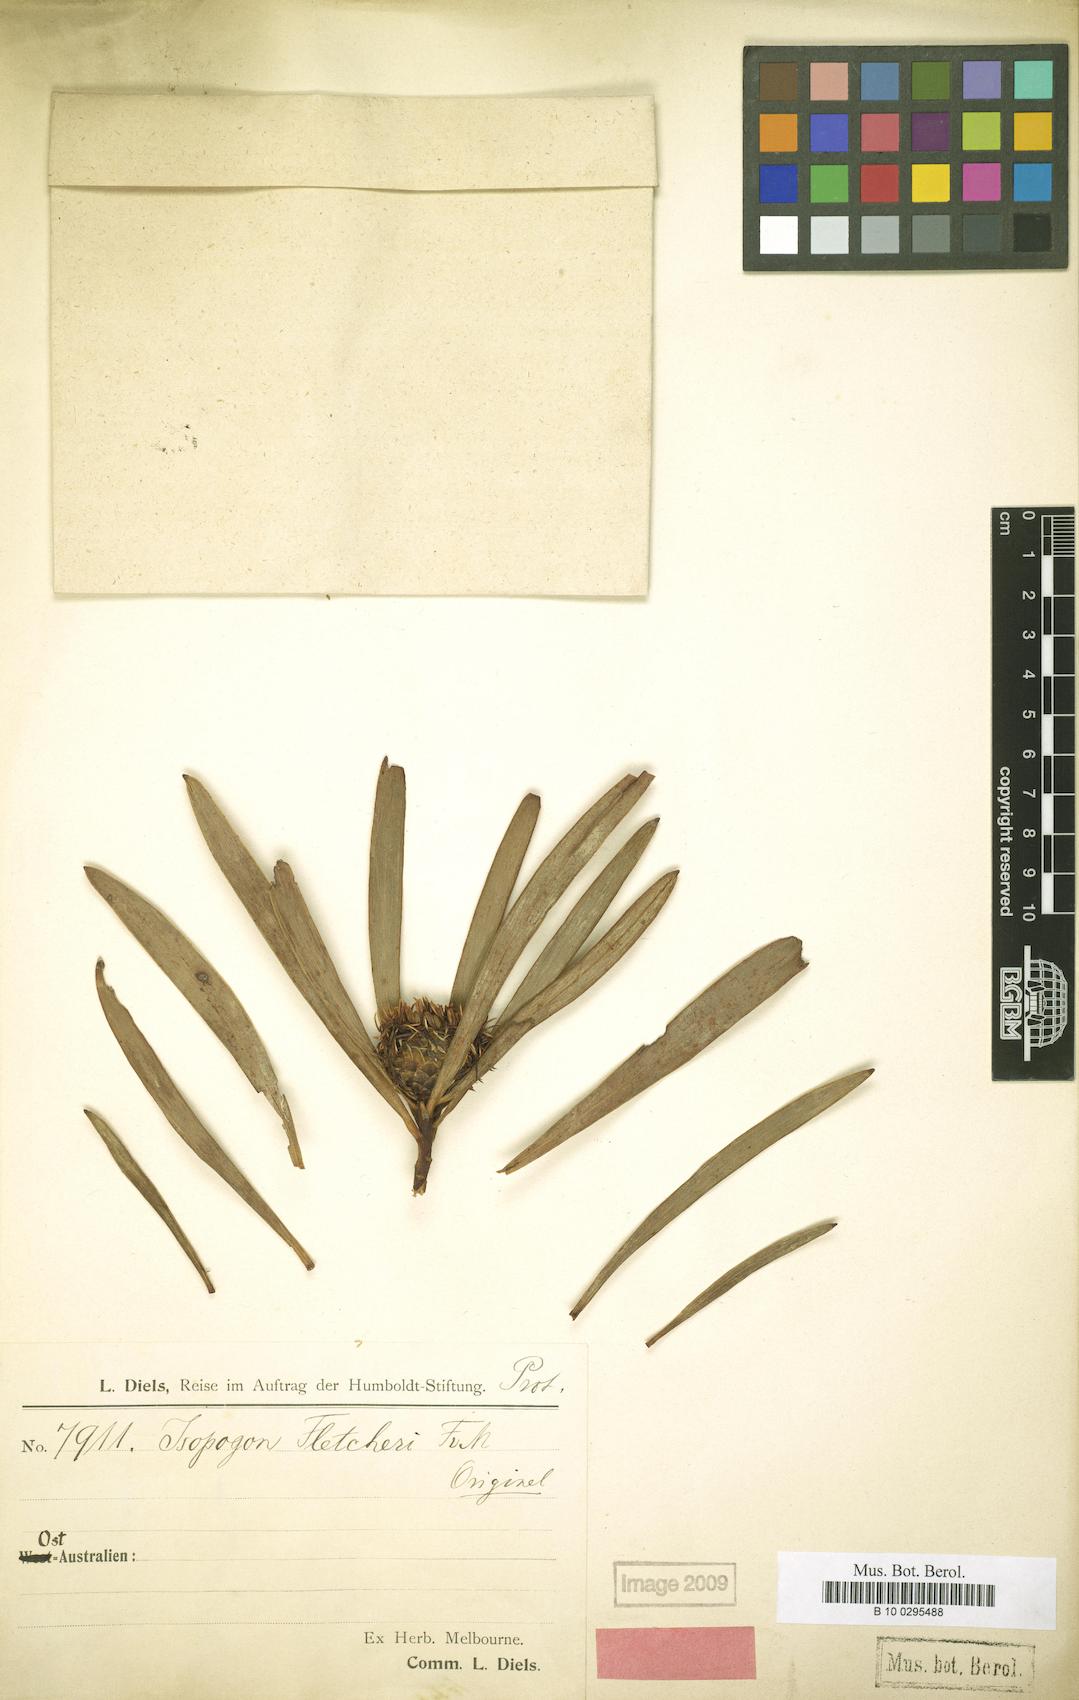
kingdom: Plantae
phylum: Tracheophyta
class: Magnoliopsida
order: Proteales
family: Proteaceae
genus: Isopogon
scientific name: Isopogon fletcheri
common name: Fletcher’s drumsticks
